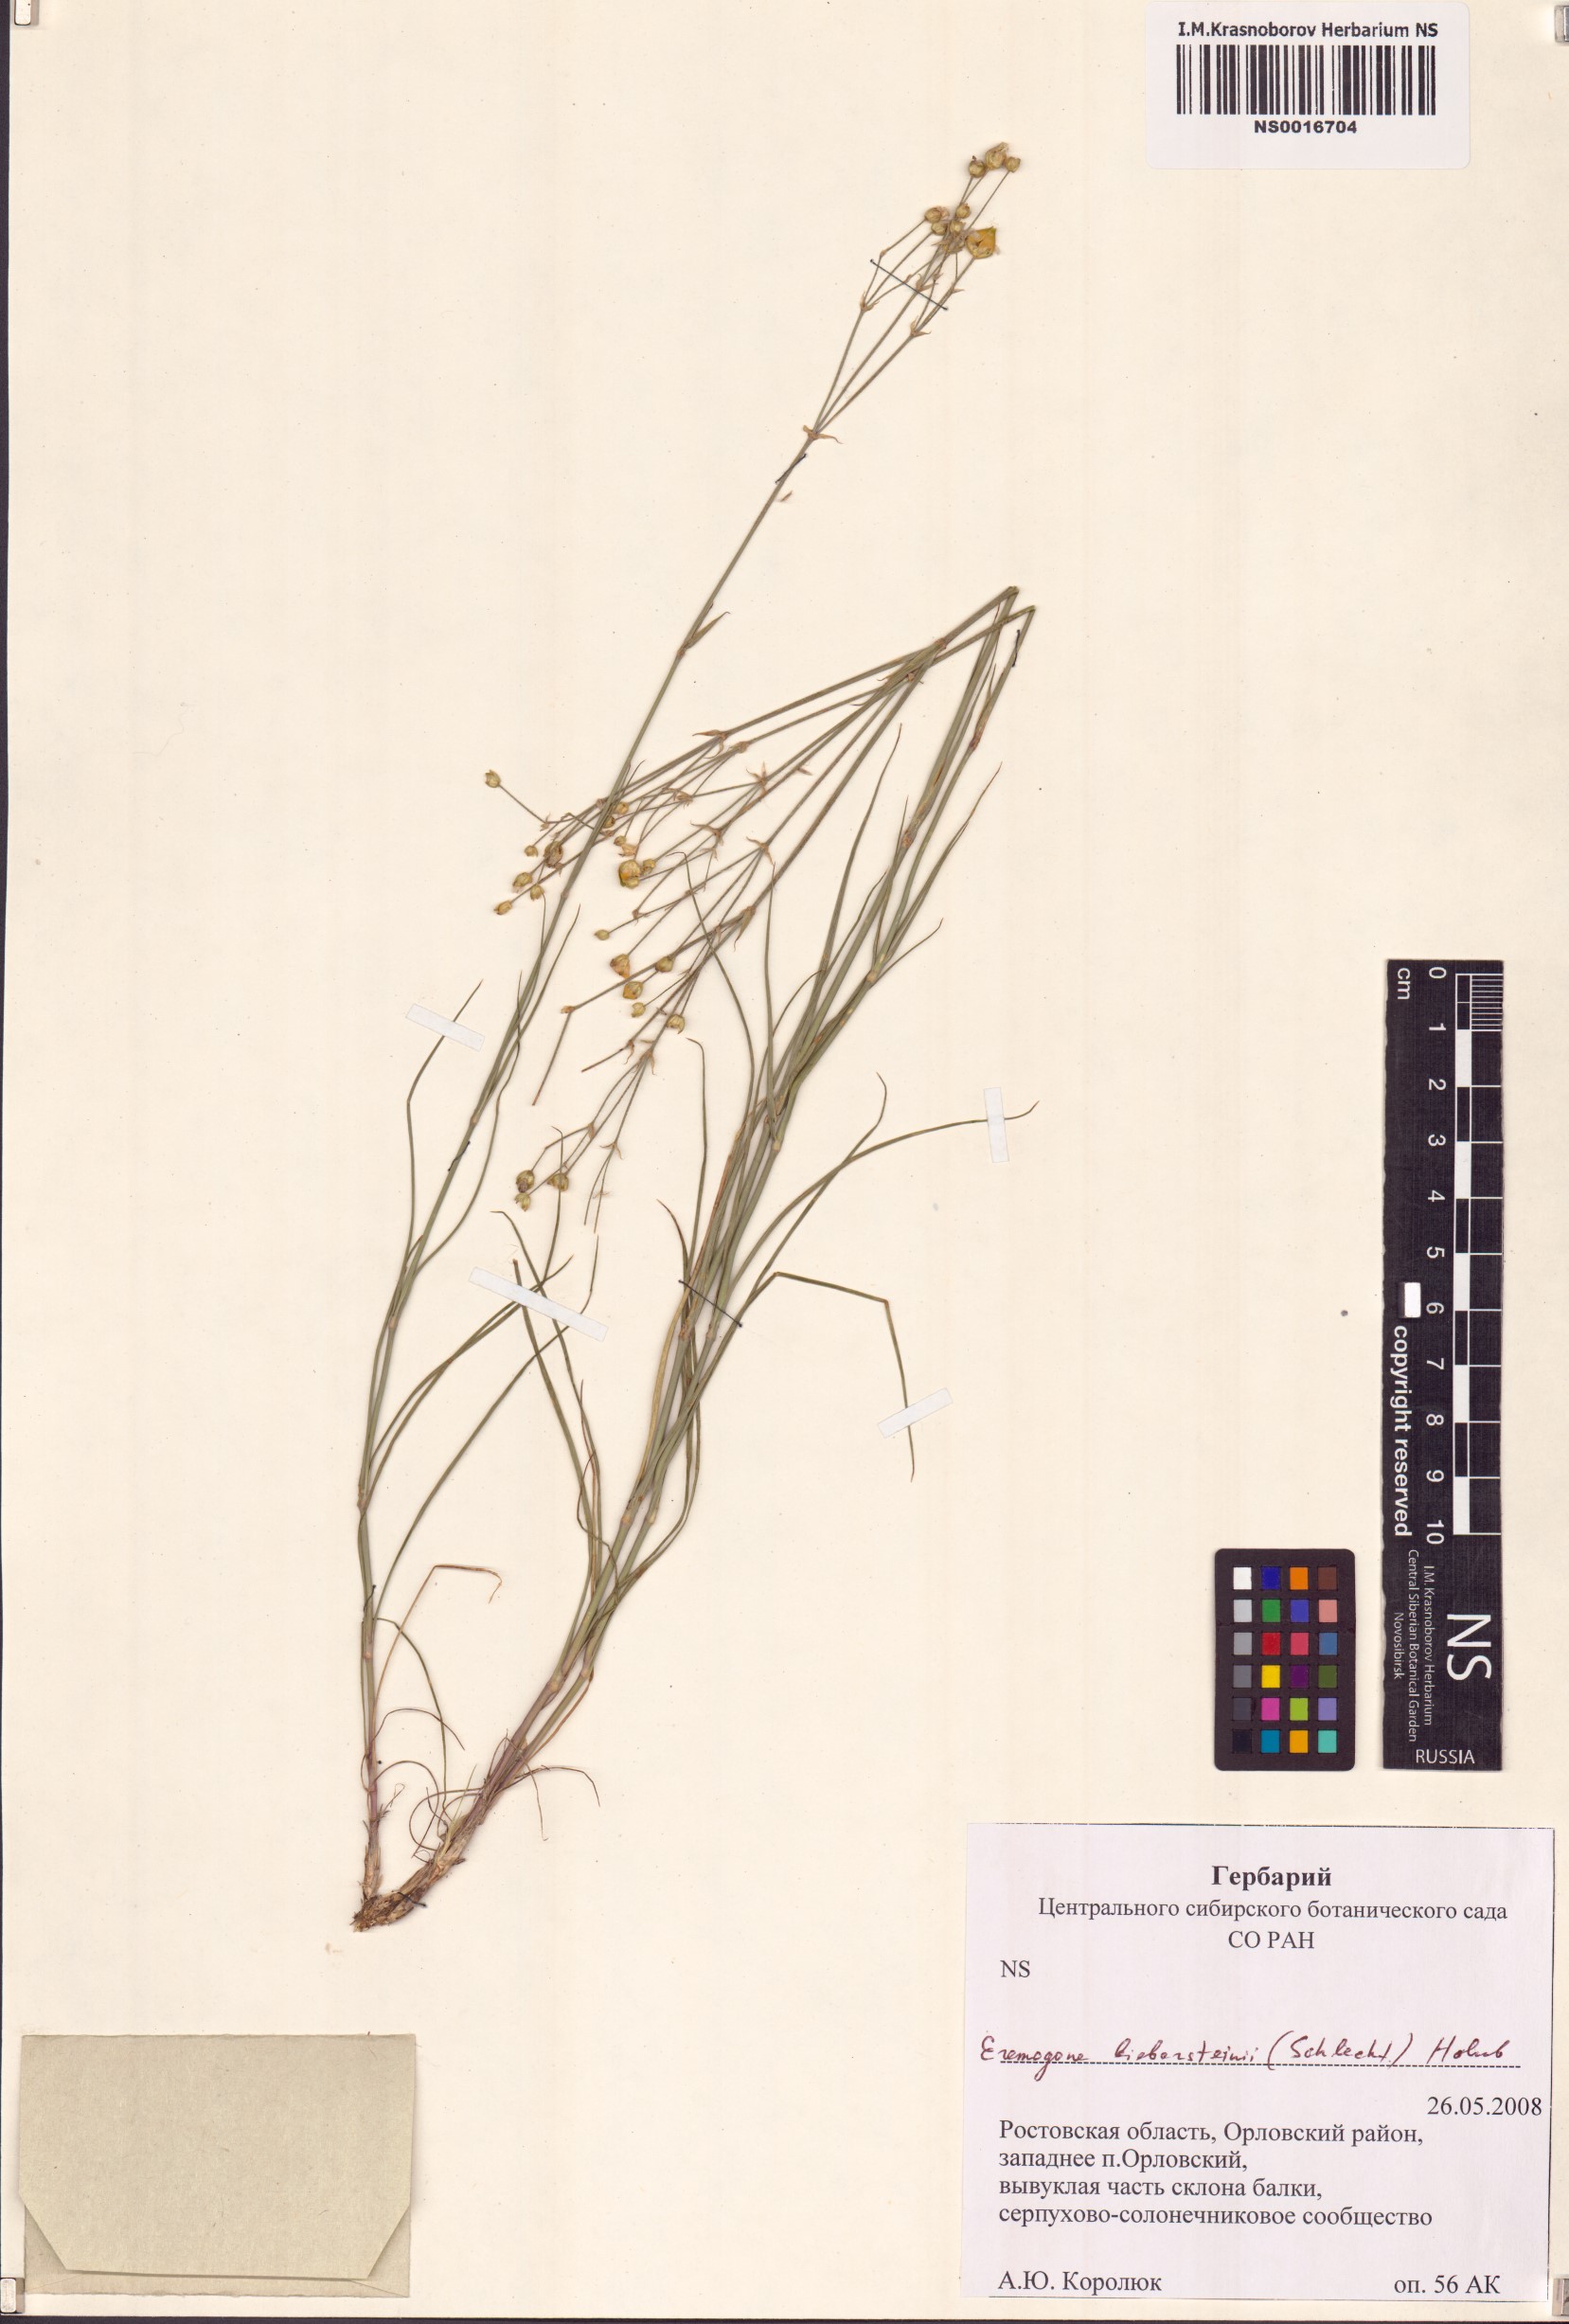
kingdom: Plantae
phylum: Tracheophyta
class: Magnoliopsida
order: Caryophyllales
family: Caryophyllaceae
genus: Eremogone
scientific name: Eremogone biebersteinii
